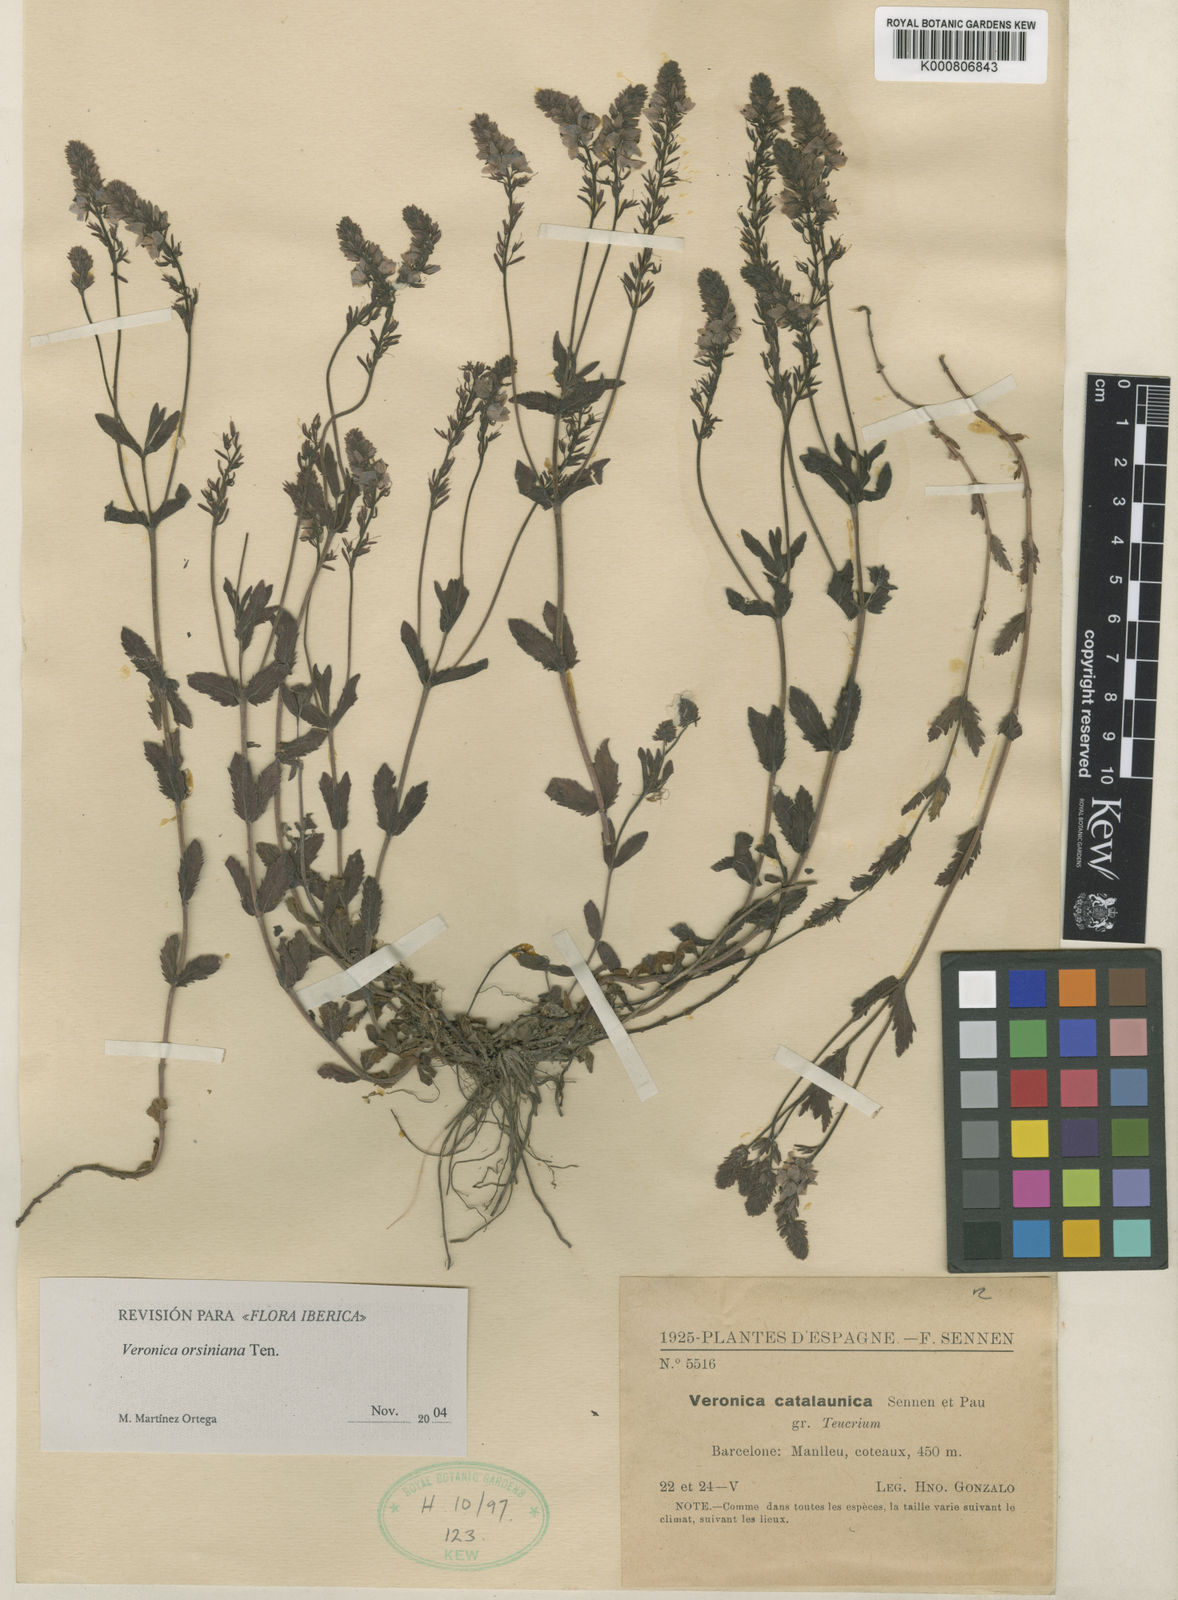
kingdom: Plantae
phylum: Tracheophyta
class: Magnoliopsida
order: Lamiales
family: Plantaginaceae
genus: Veronica
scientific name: Veronica
